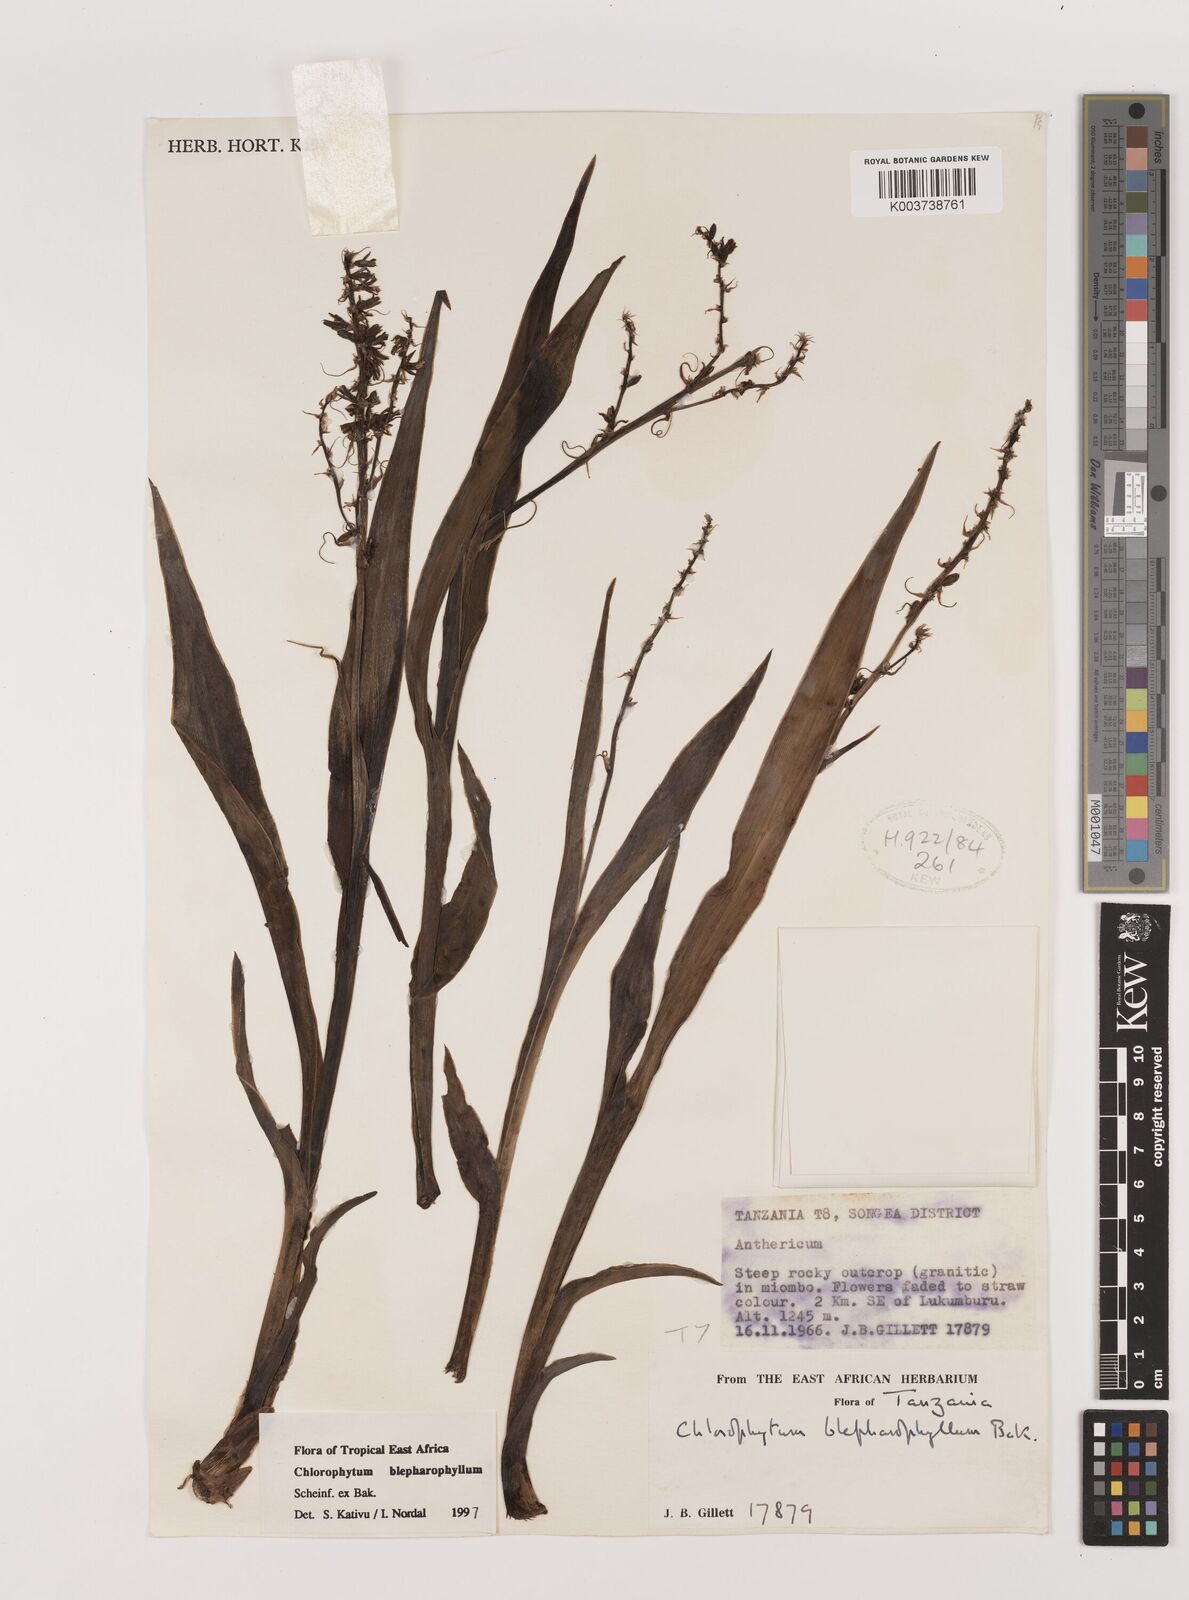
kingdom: Plantae
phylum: Tracheophyta
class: Liliopsida
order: Asparagales
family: Asparagaceae
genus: Chlorophytum
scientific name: Chlorophytum blepharophyllum
